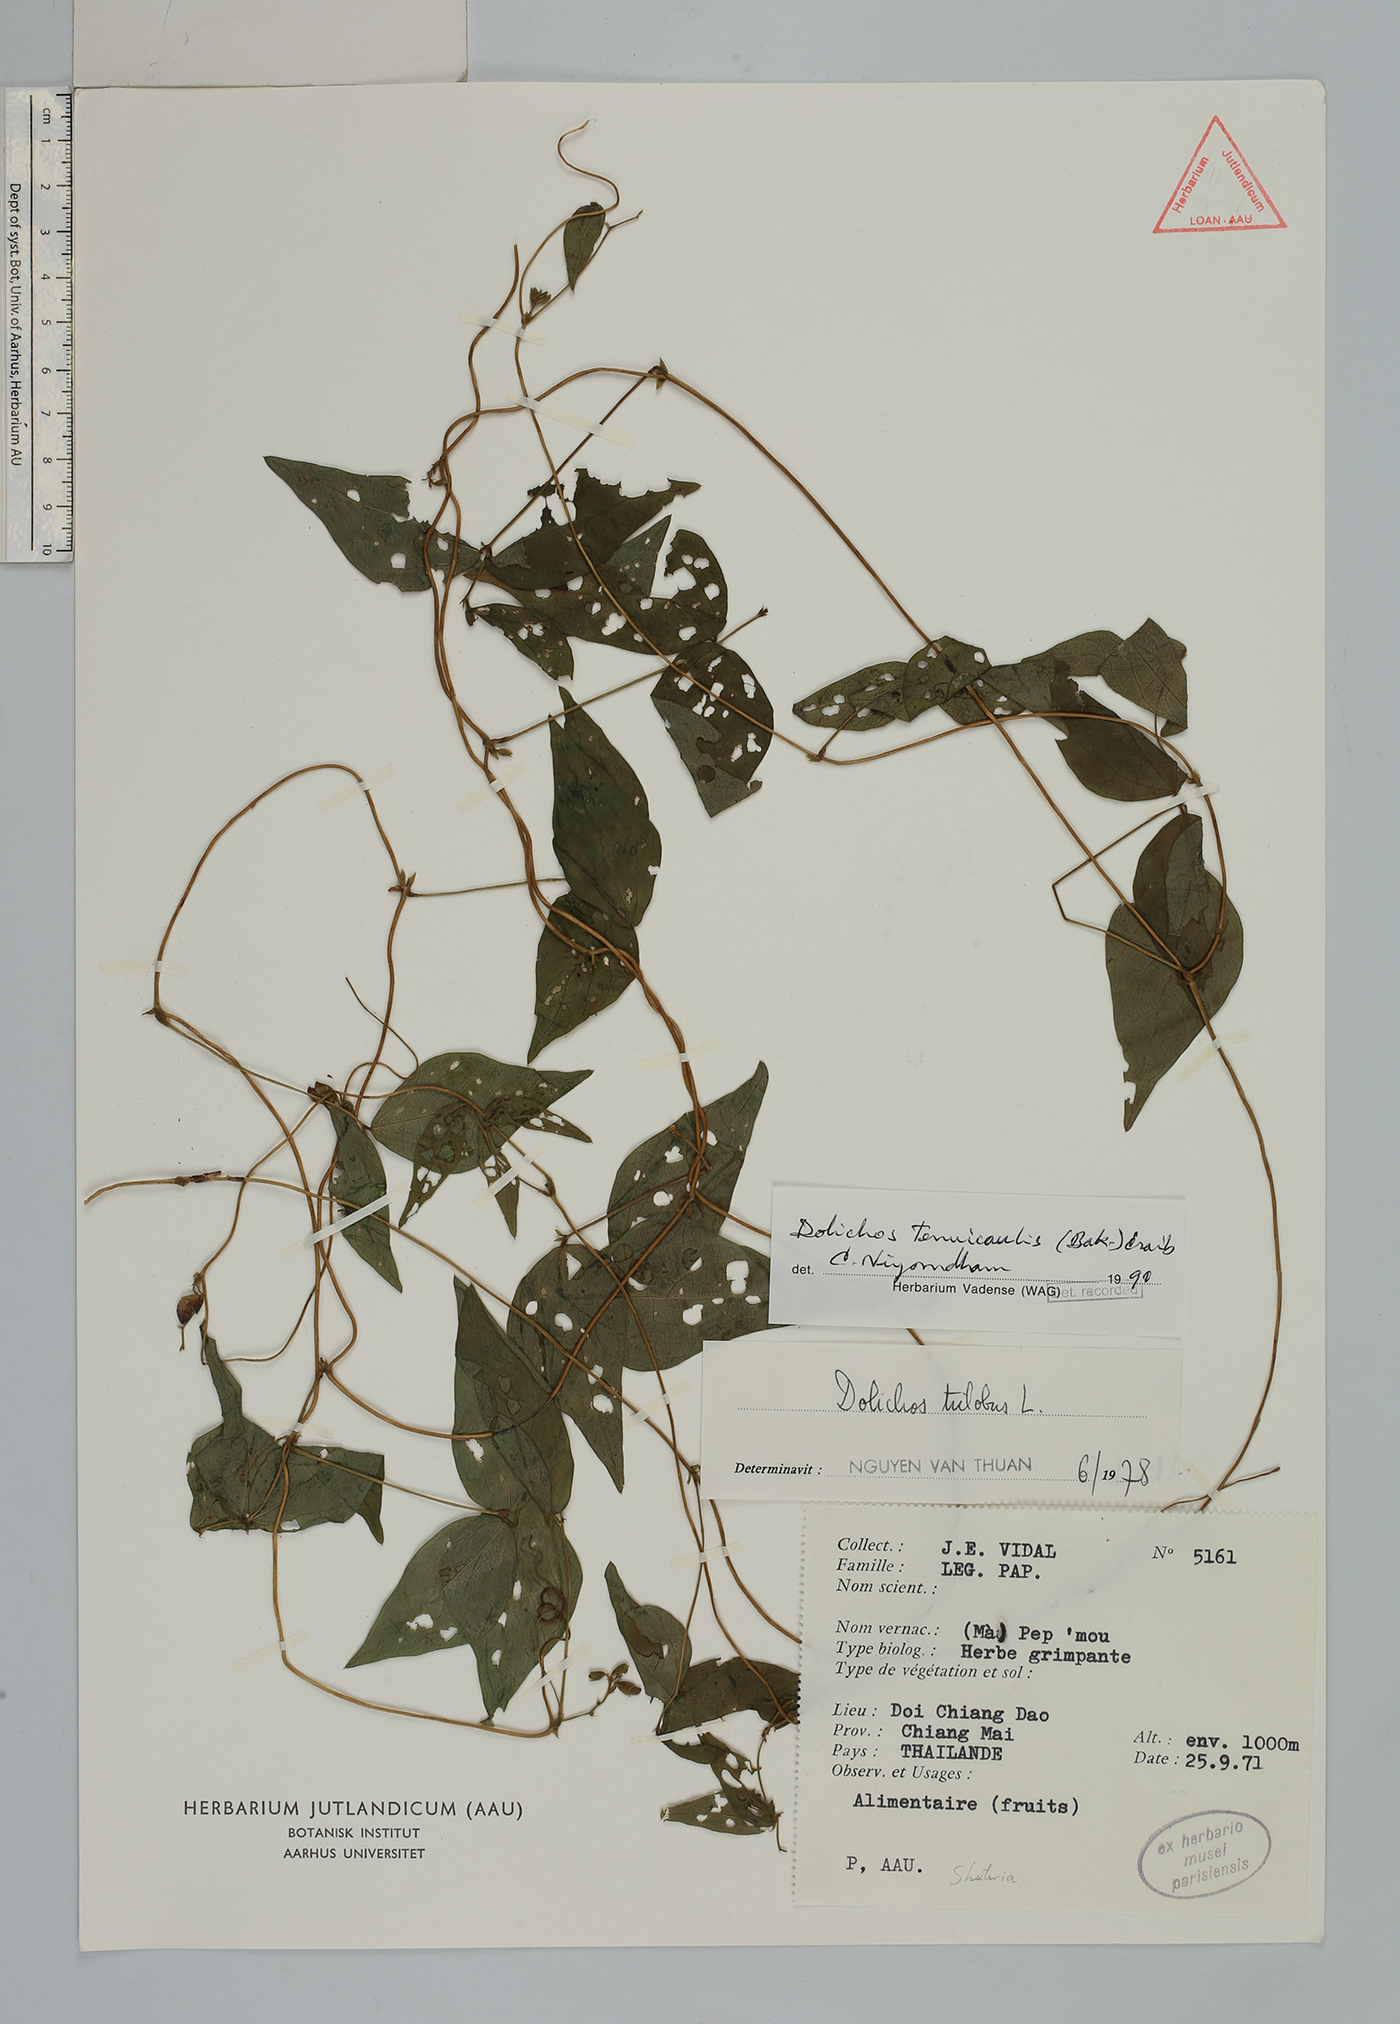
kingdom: Plantae
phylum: Tracheophyta
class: Magnoliopsida
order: Fabales
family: Fabaceae
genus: Dolichos
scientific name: Dolichos tenuicaulis
